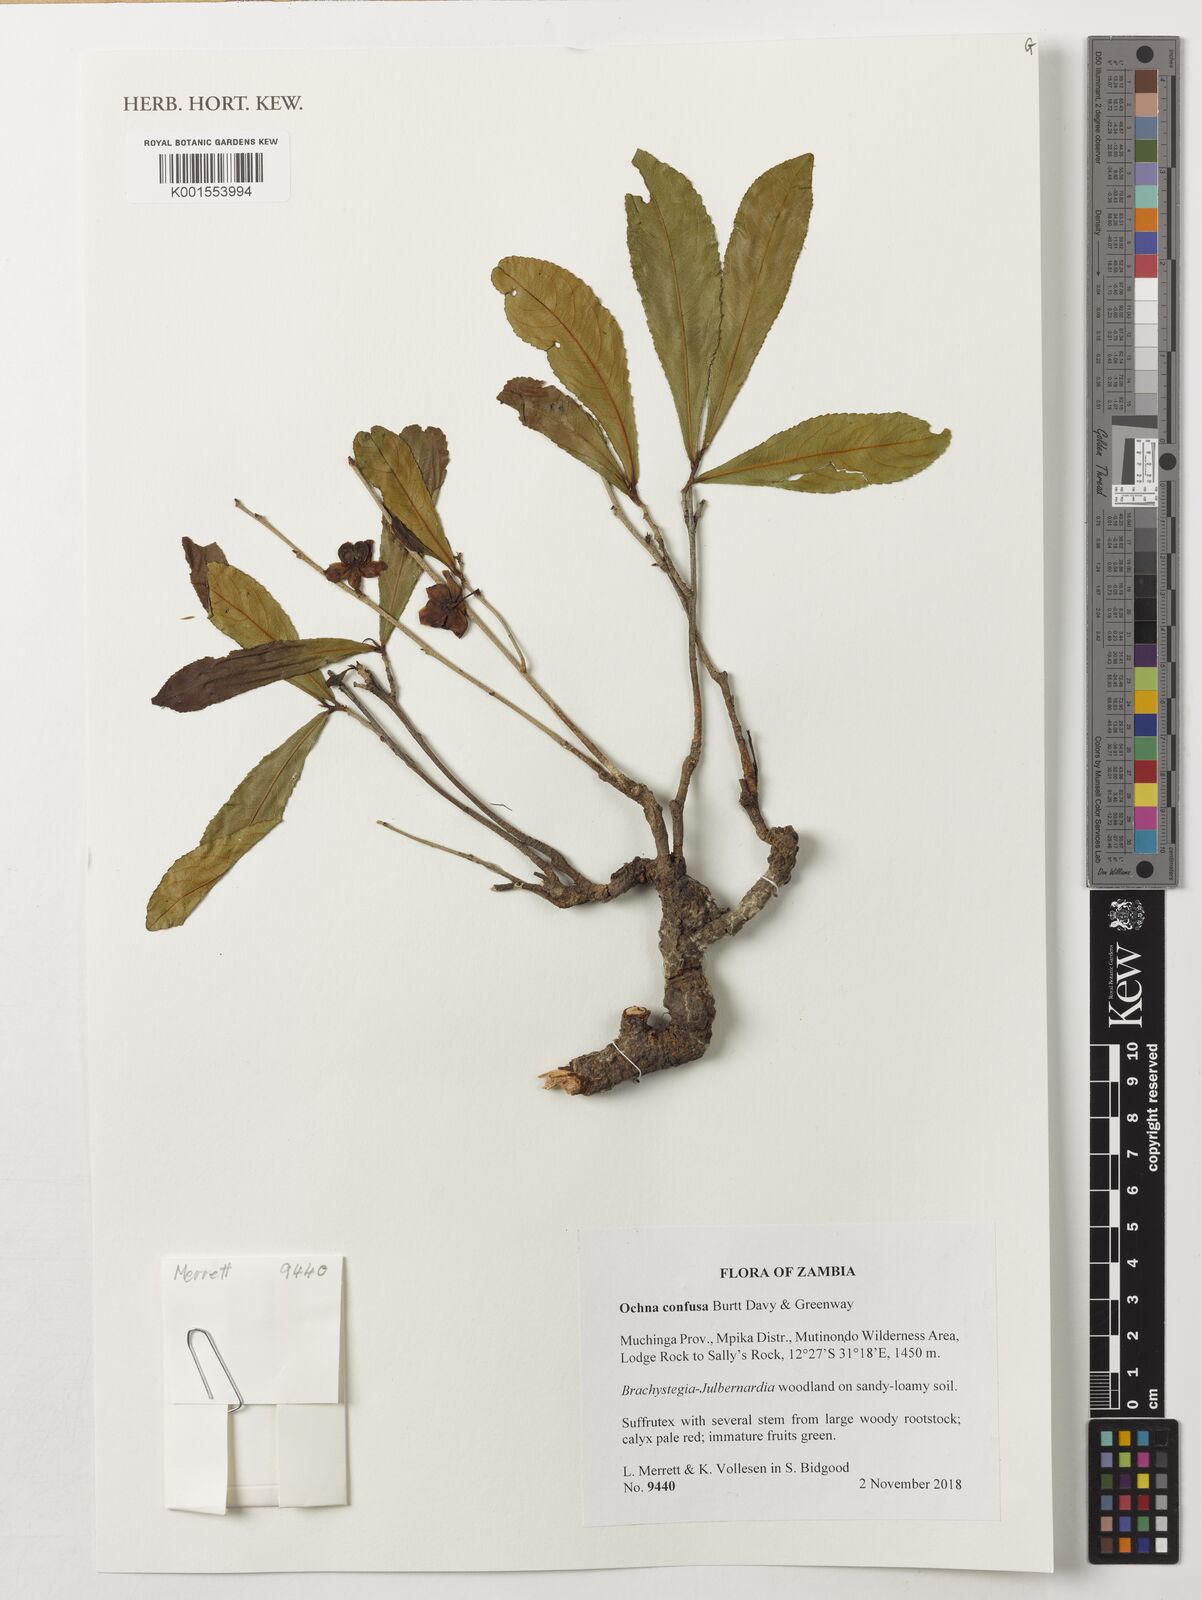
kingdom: Plantae
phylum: Tracheophyta
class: Magnoliopsida
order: Malpighiales
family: Ochnaceae
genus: Ochna
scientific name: Ochna confusa
